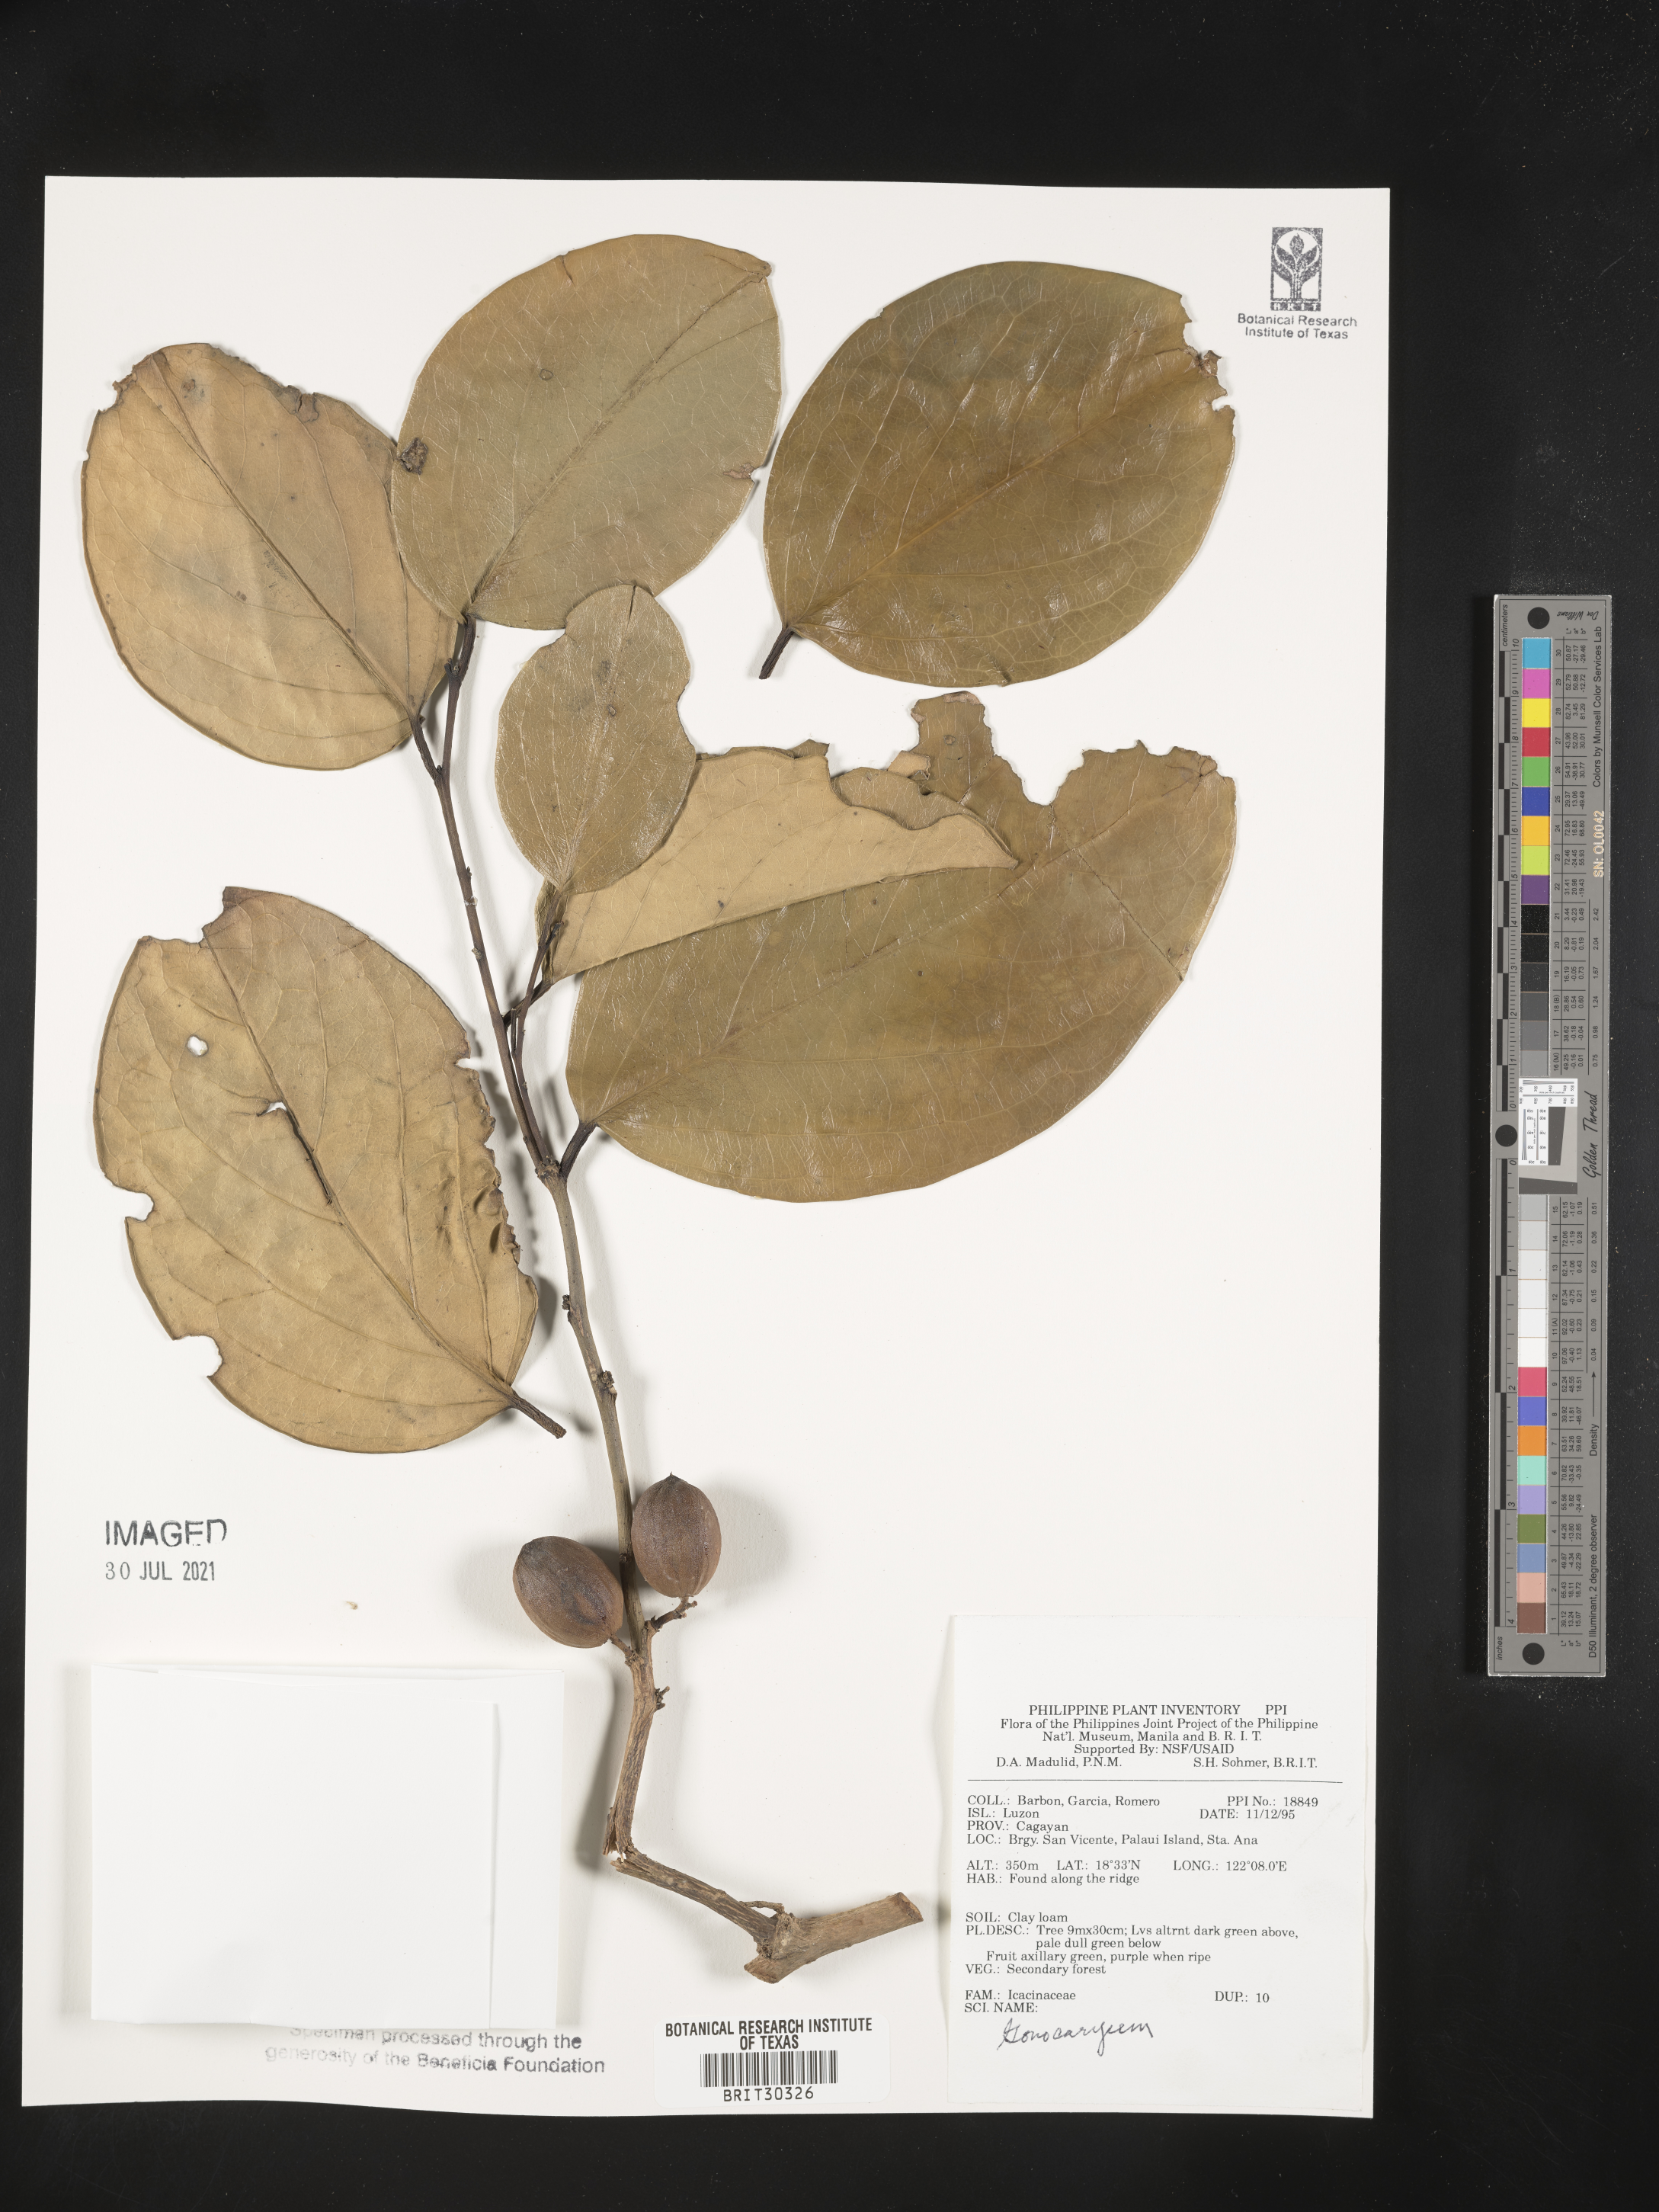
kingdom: Plantae
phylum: Tracheophyta
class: Magnoliopsida
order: Cardiopteridales
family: Cardiopteridaceae
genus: Gonocaryum
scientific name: Gonocaryum
